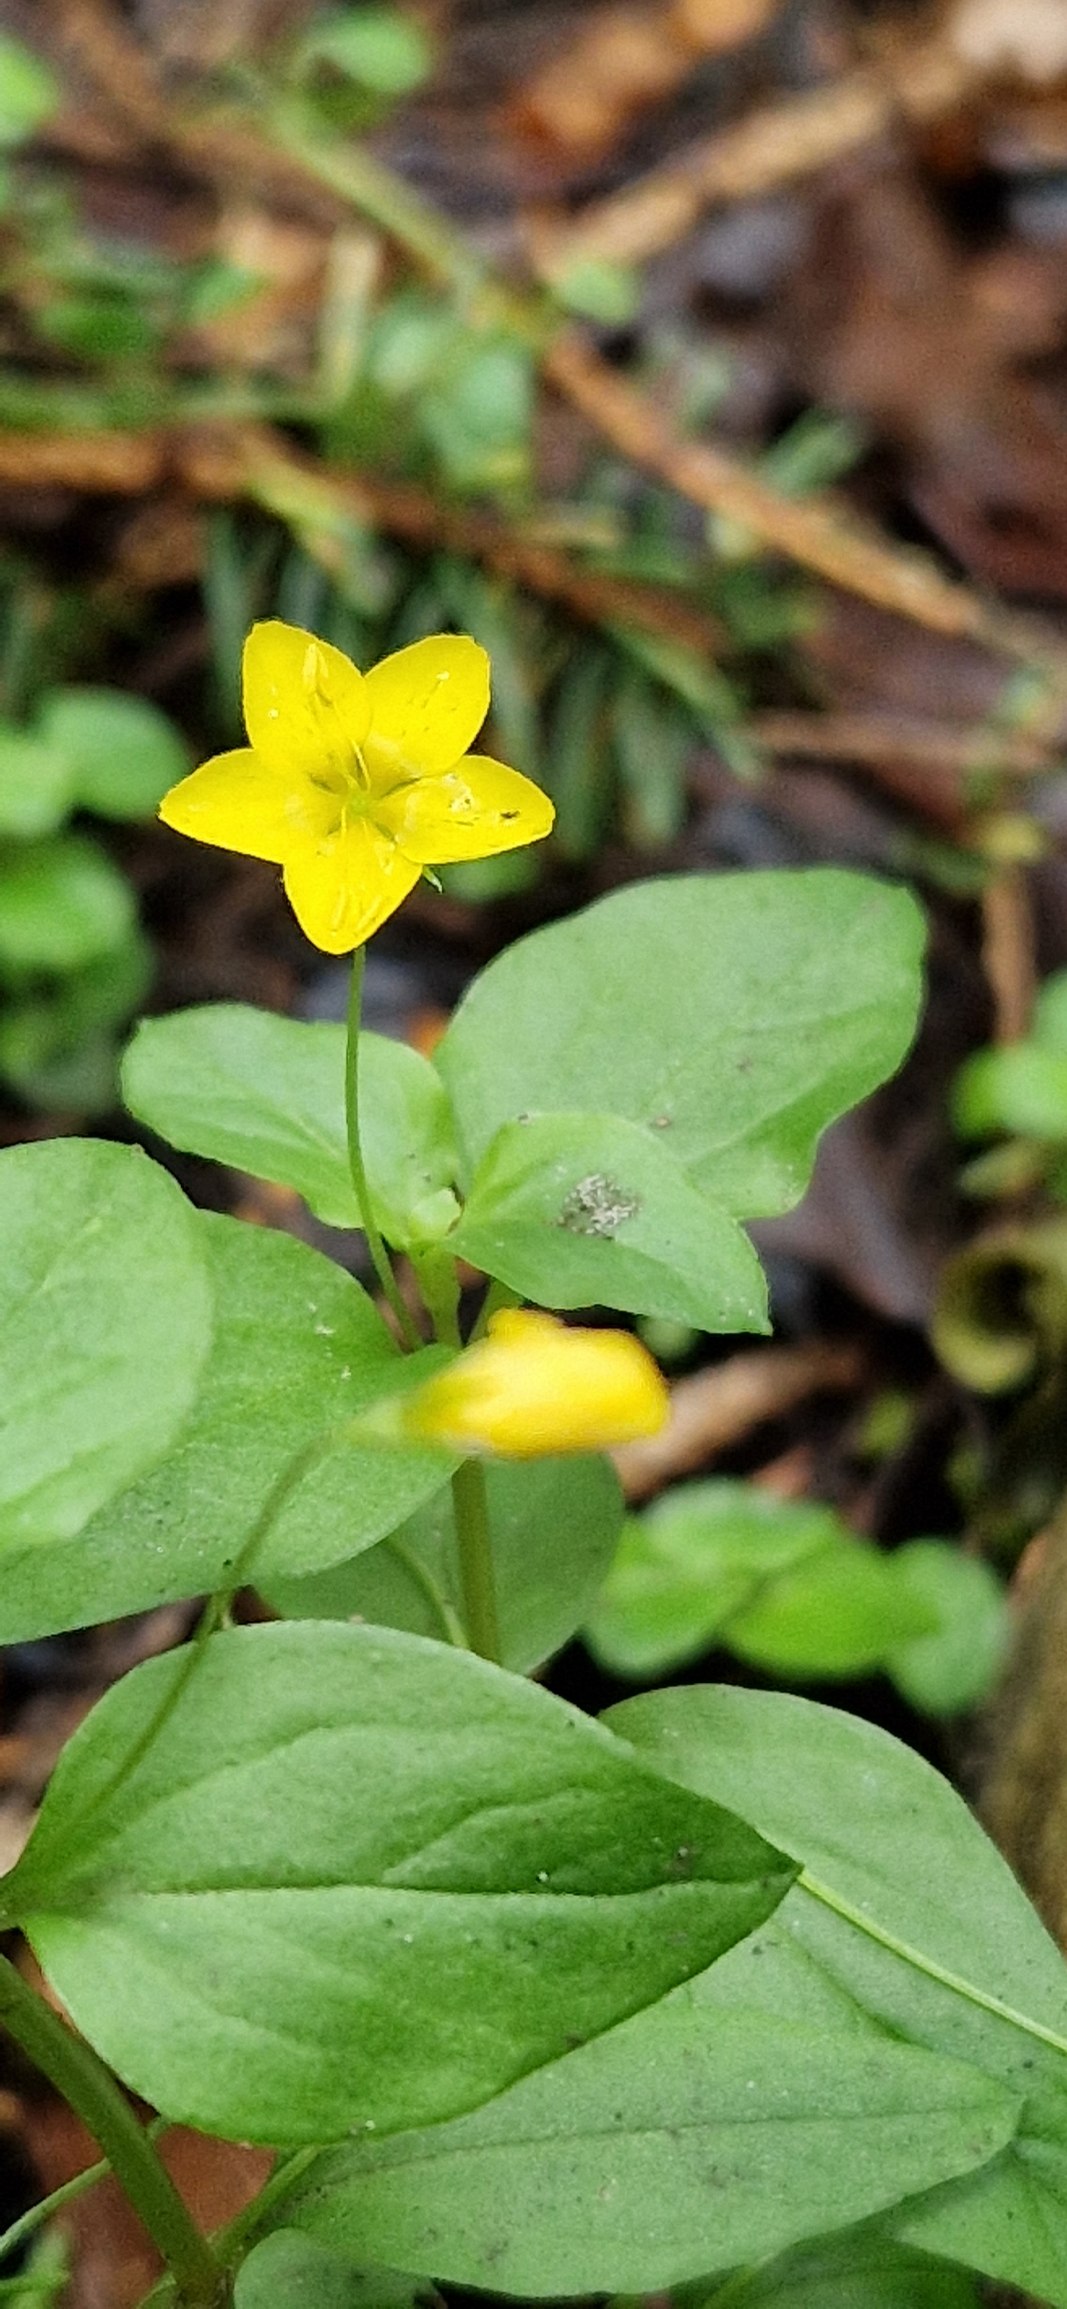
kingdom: Plantae
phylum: Tracheophyta
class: Magnoliopsida
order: Ericales
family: Primulaceae
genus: Lysimachia
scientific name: Lysimachia nemorum
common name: Lund-fredløs
